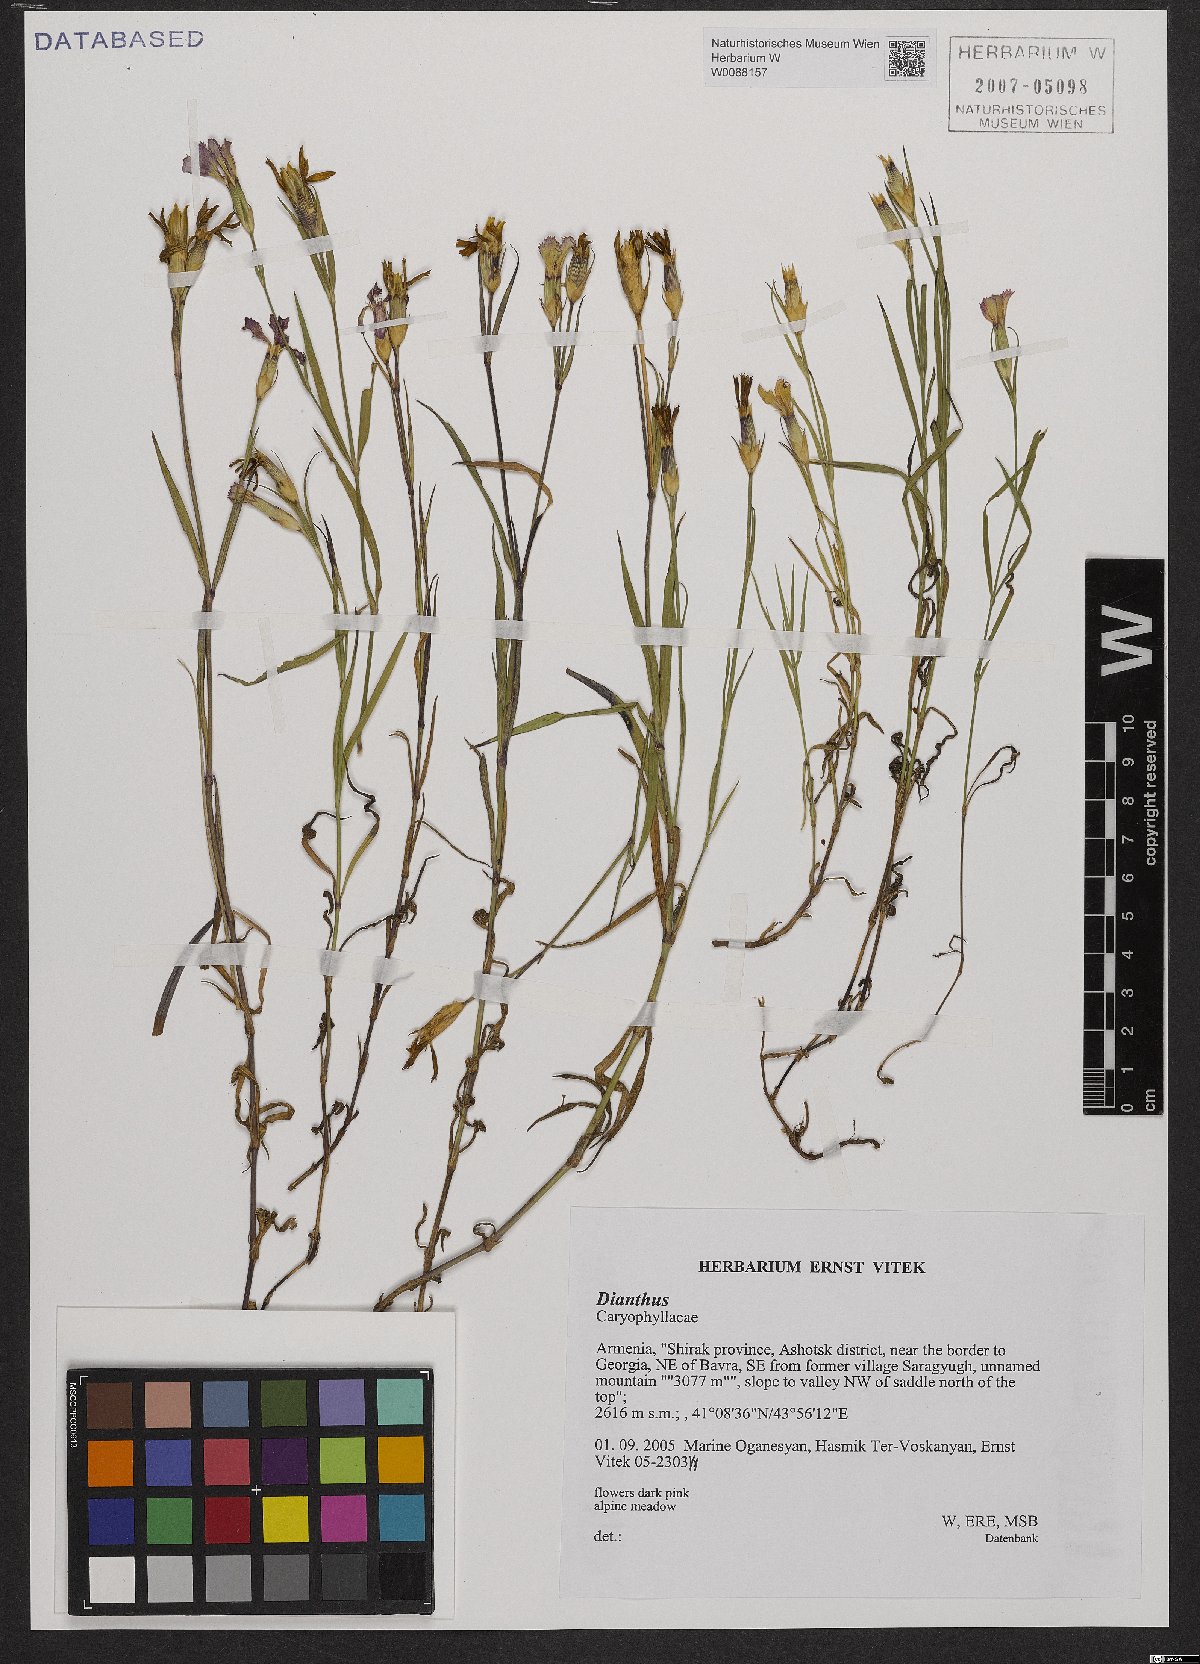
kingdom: Plantae
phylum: Tracheophyta
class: Magnoliopsida
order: Caryophyllales
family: Caryophyllaceae
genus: Dianthus
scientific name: Dianthus
